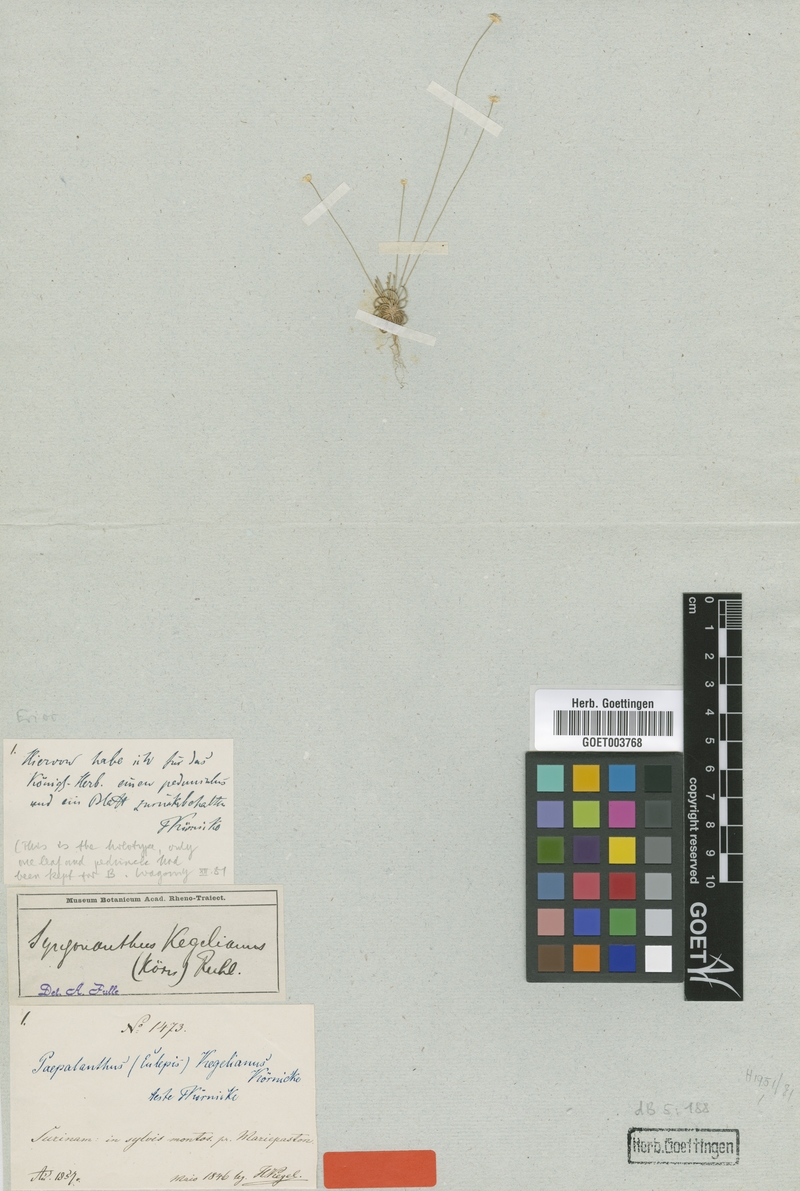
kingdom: Plantae
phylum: Tracheophyta
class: Liliopsida
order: Poales
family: Eriocaulaceae
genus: Comanthera
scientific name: Comanthera kegeliana
